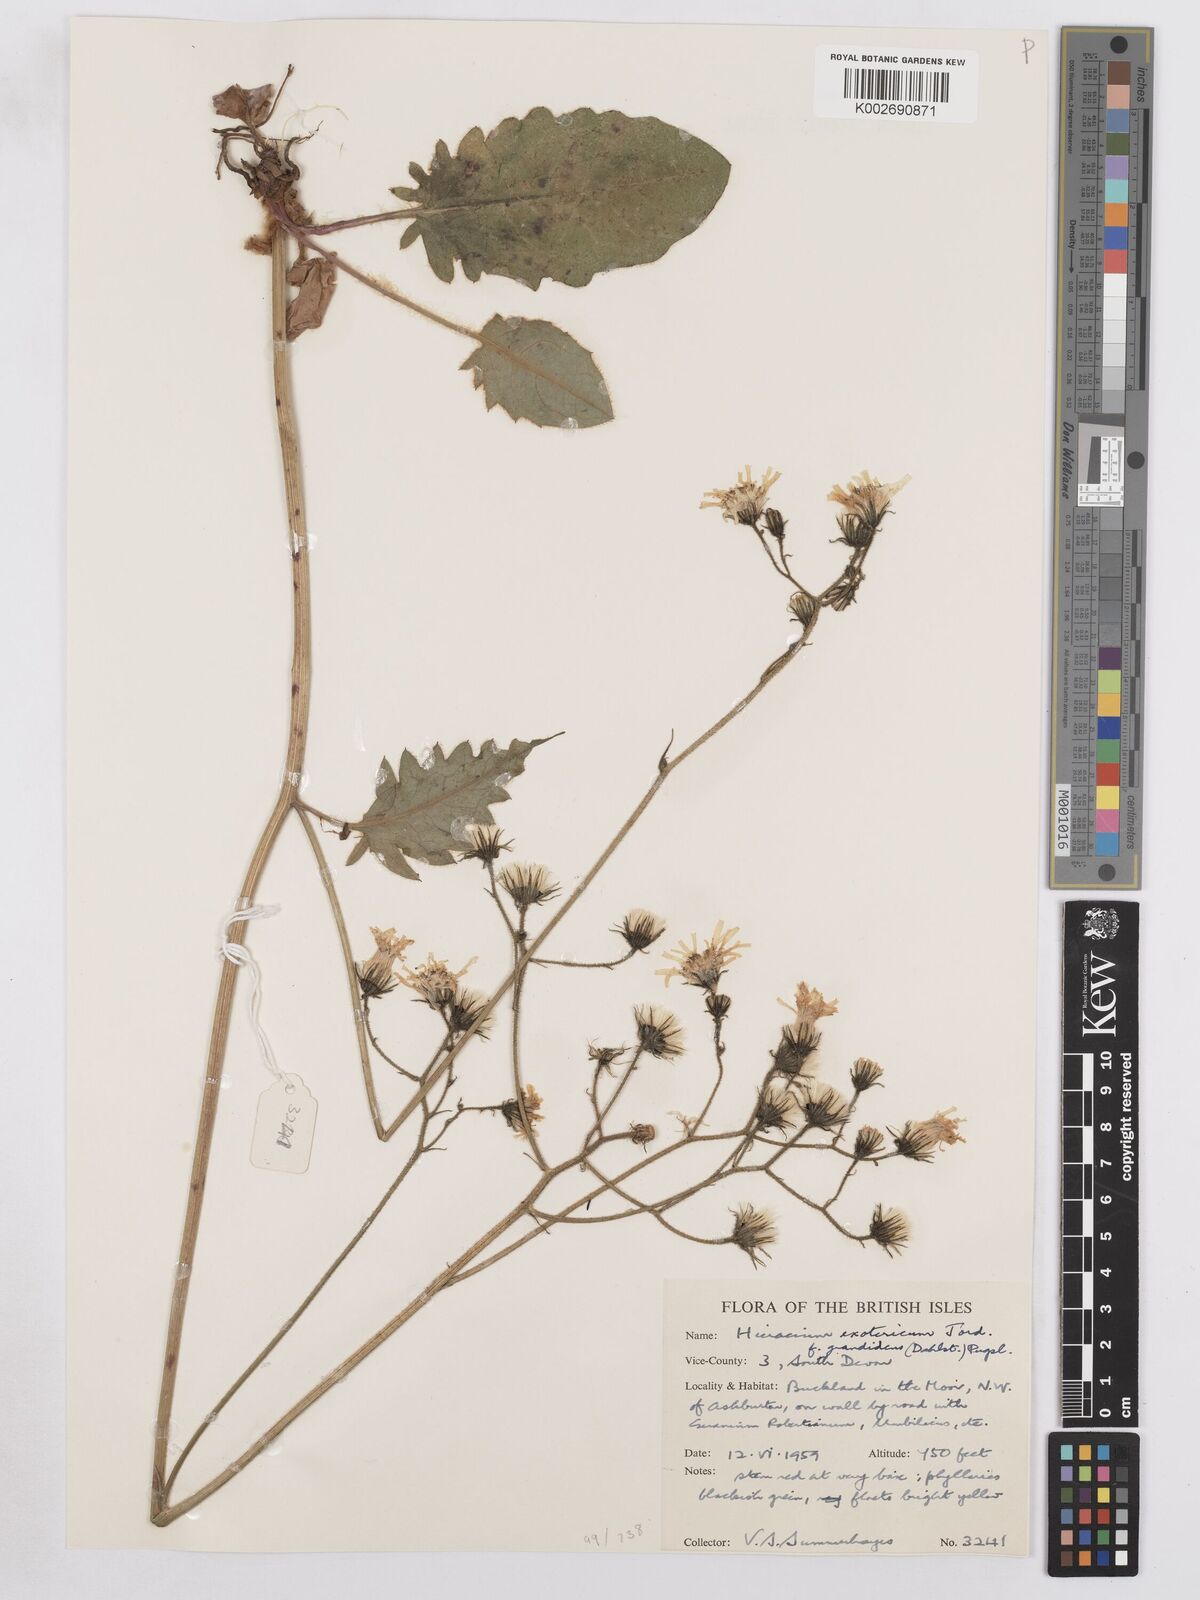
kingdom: Plantae
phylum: Tracheophyta
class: Magnoliopsida
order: Asterales
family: Asteraceae
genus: Hieracium
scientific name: Hieracium murorum
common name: Wall hawkweed
